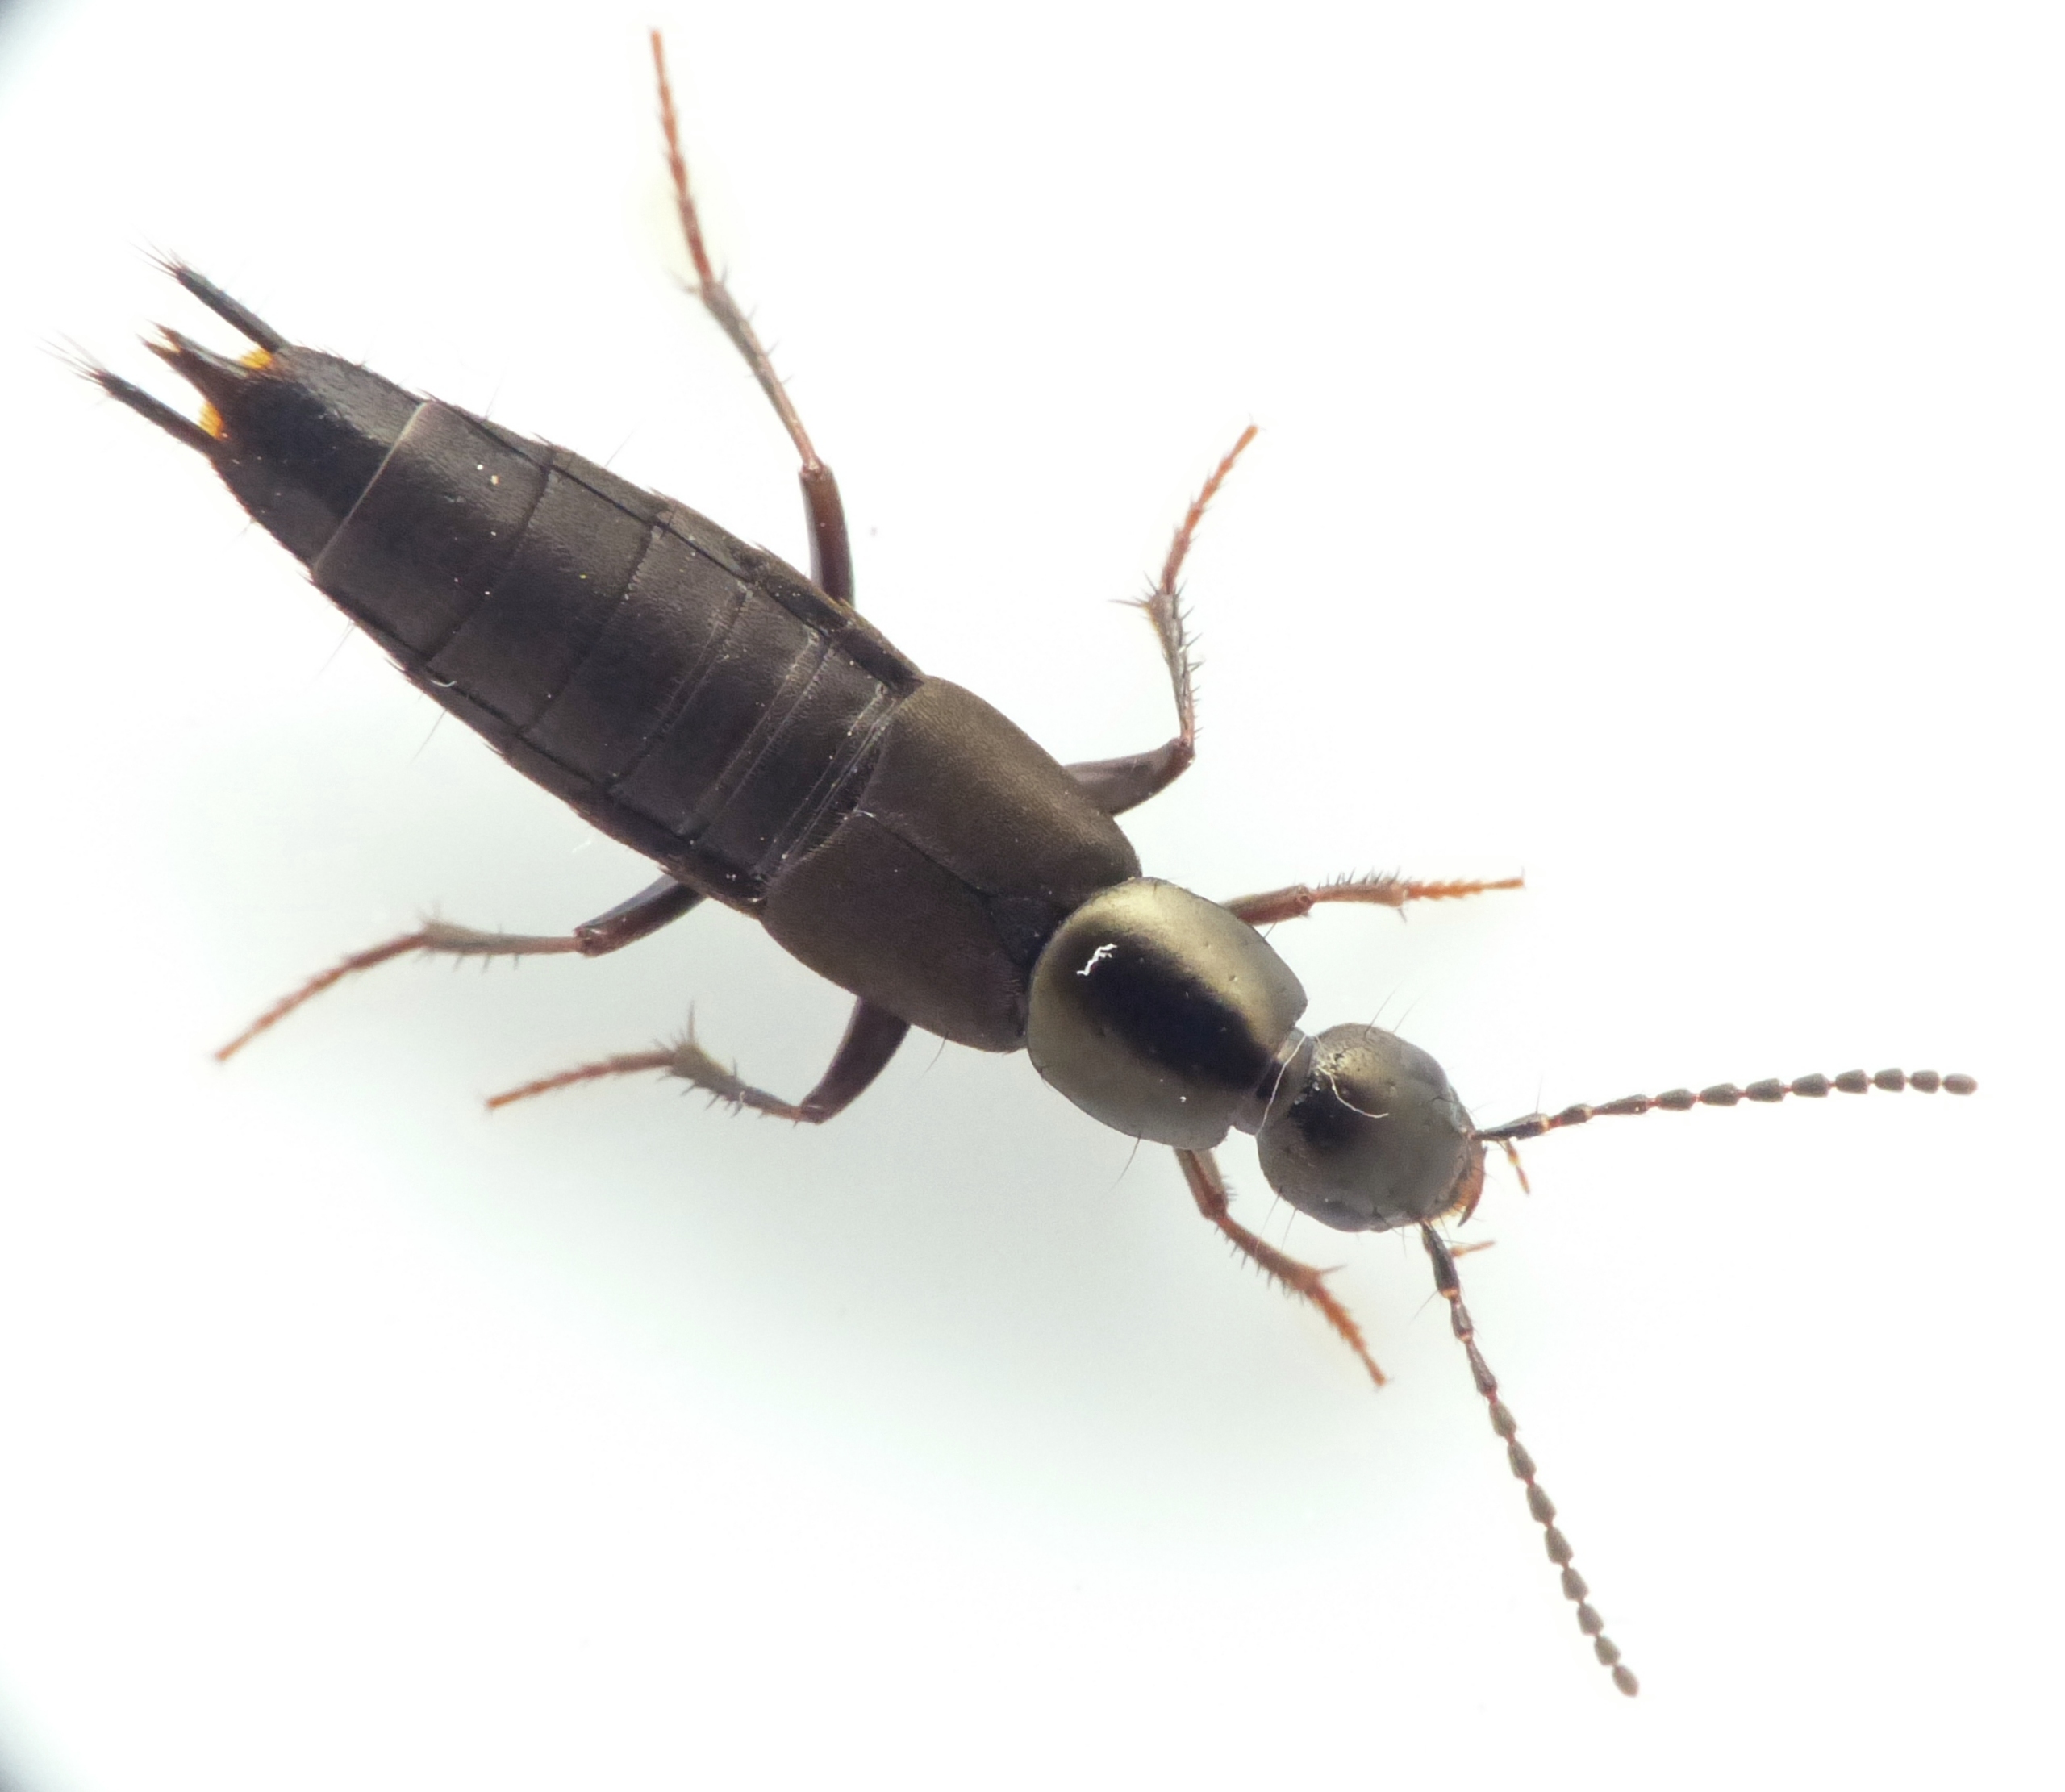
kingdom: Animalia
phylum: Arthropoda
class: Insecta
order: Coleoptera
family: Staphylinidae
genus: Philonthus
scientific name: Philonthus decorus
